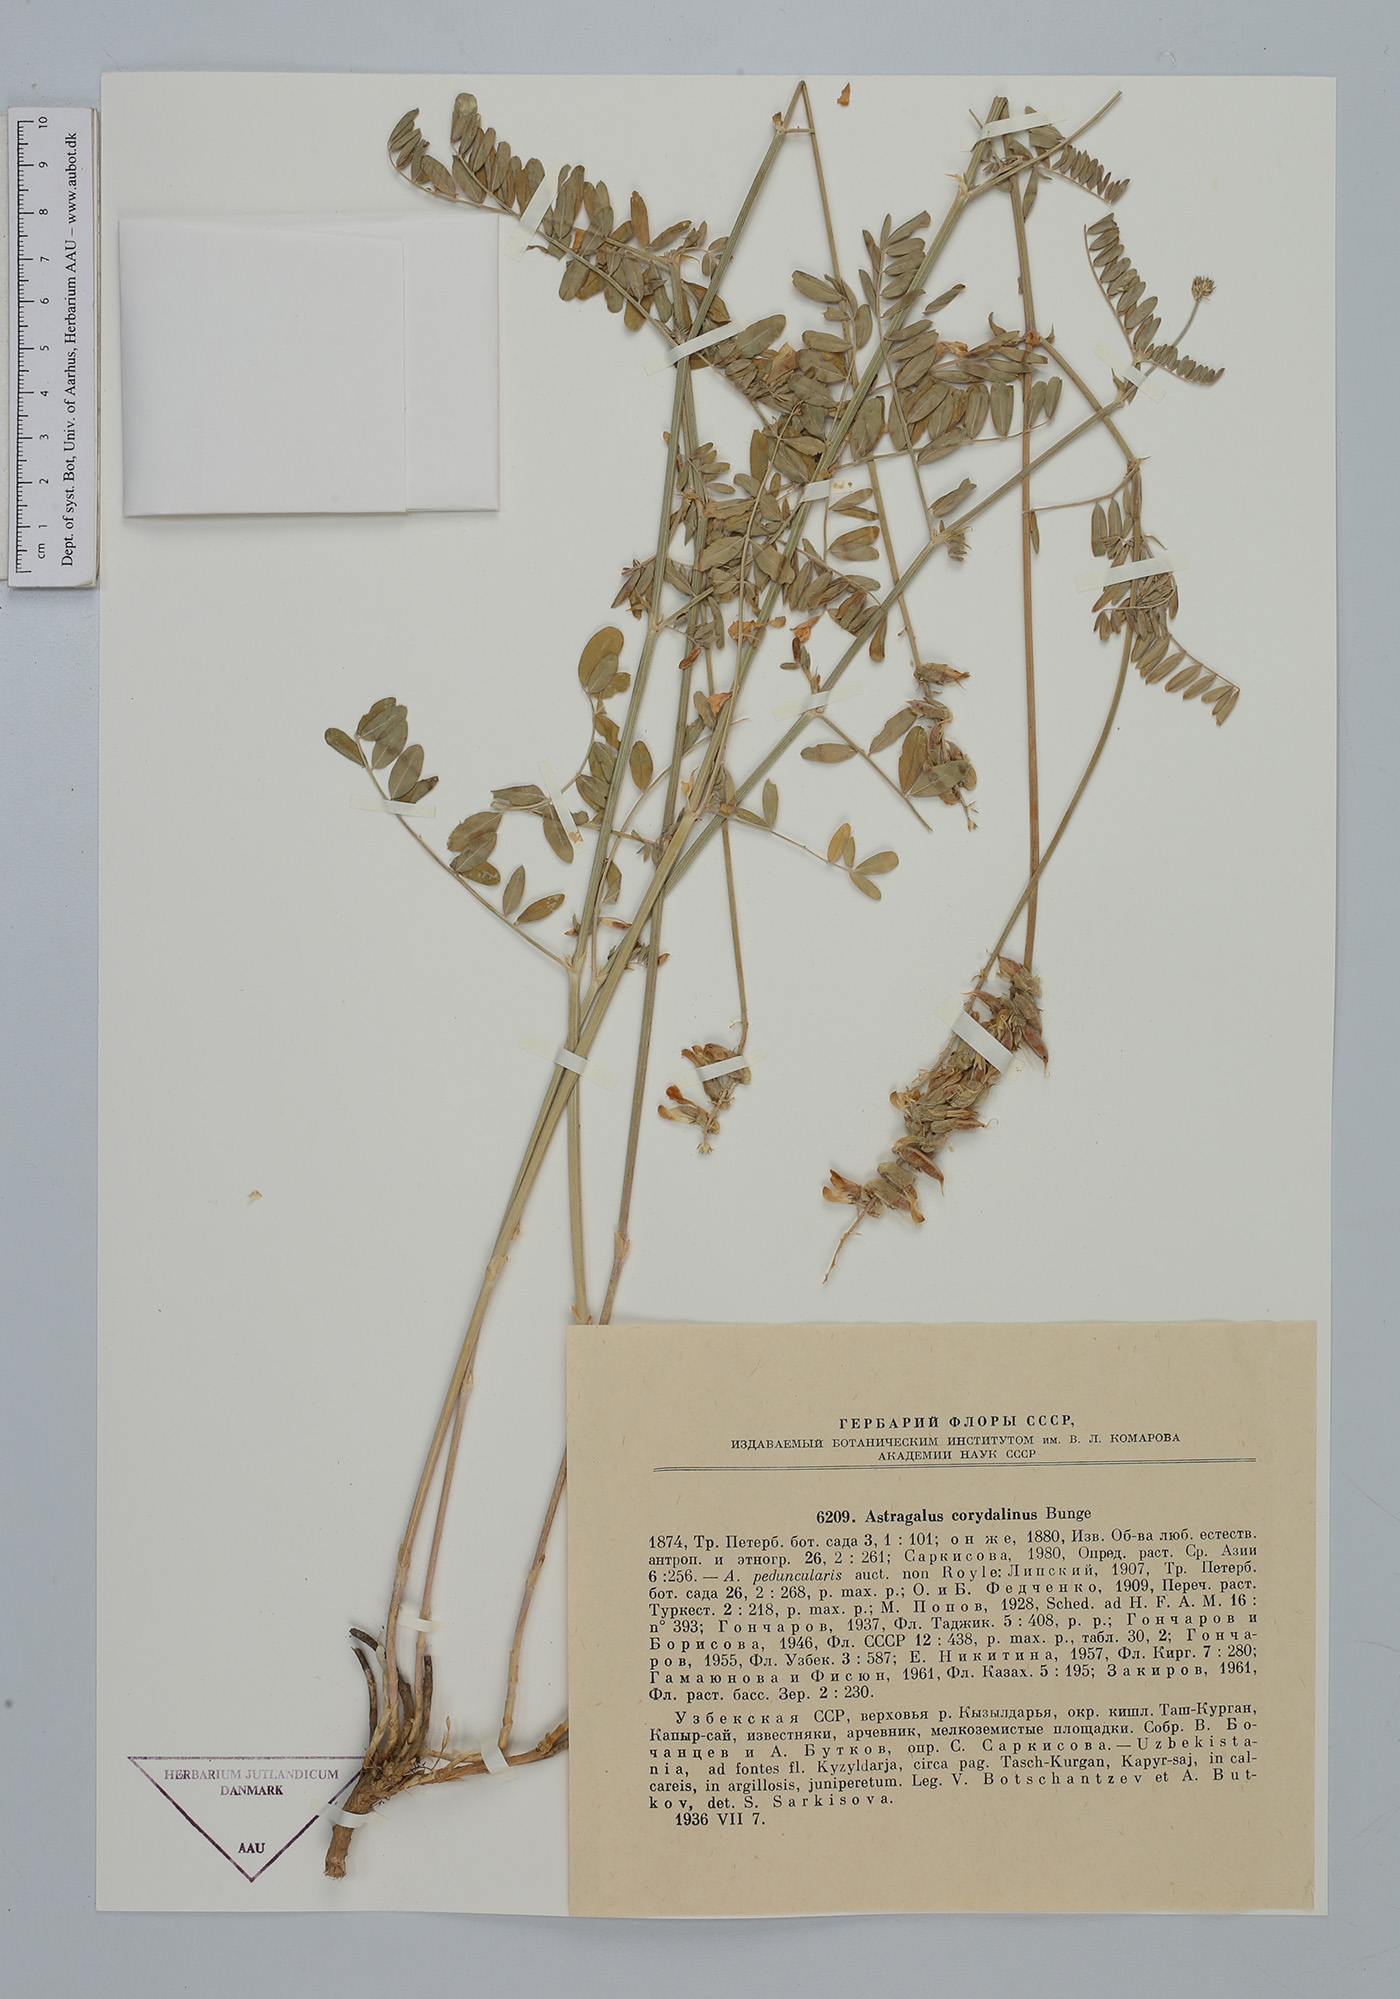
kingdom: Plantae
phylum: Tracheophyta
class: Magnoliopsida
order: Fabales
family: Fabaceae
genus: Astragalus
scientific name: Astragalus peduncularis
